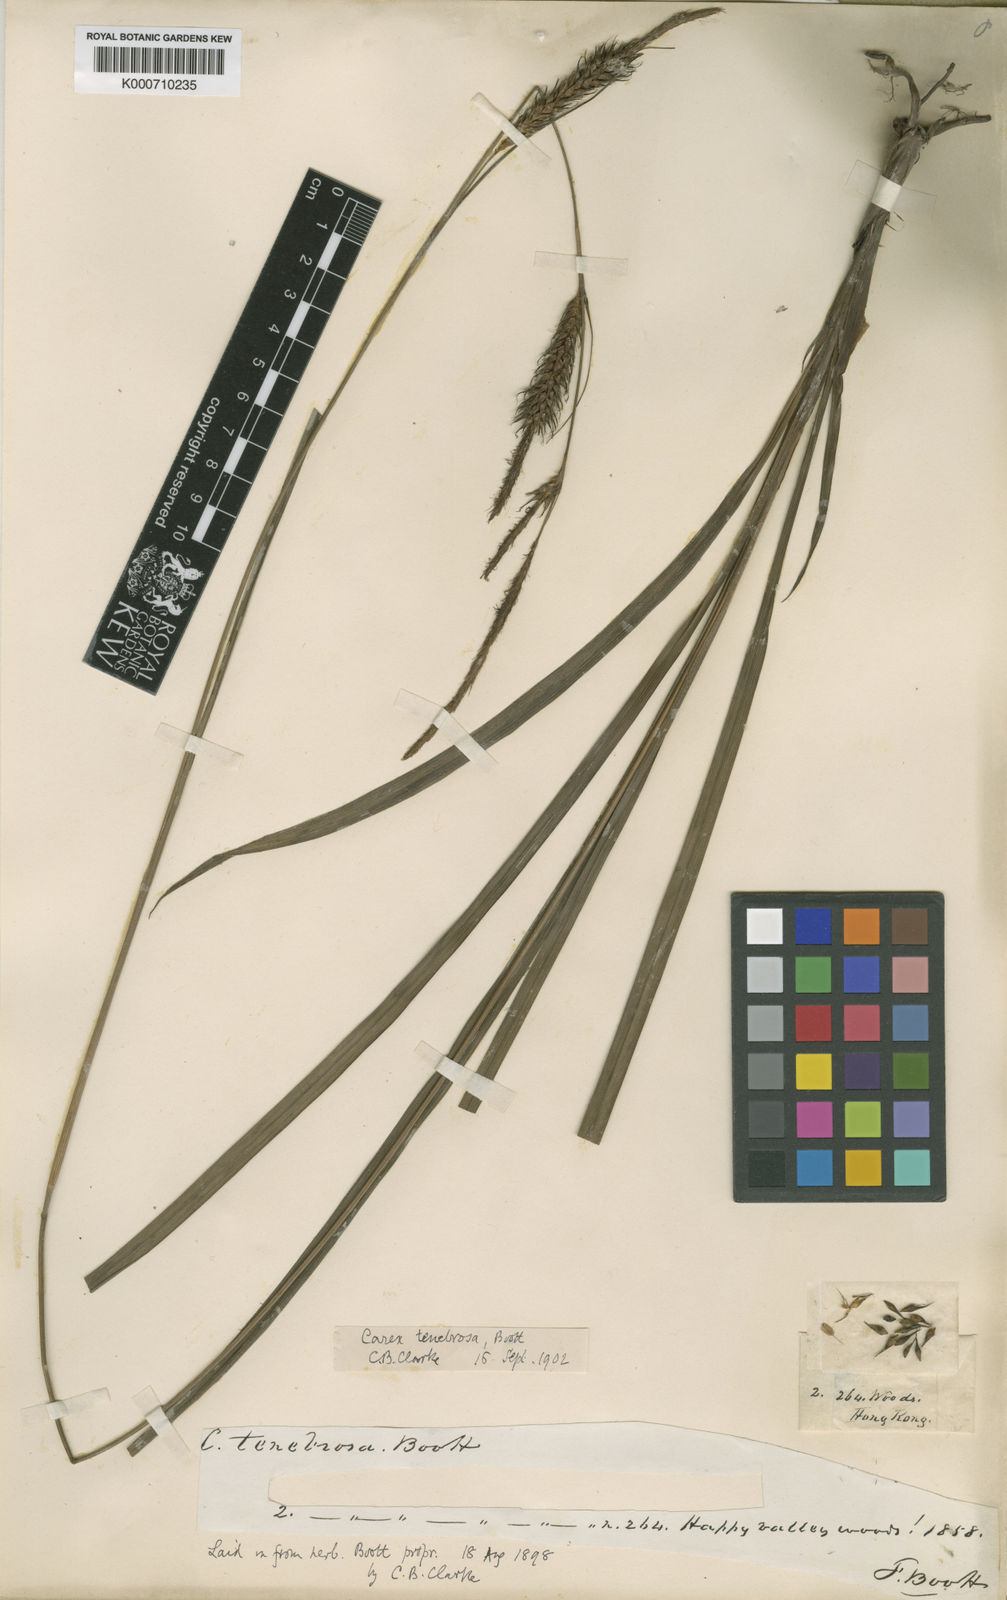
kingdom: Plantae
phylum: Tracheophyta
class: Liliopsida
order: Poales
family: Cyperaceae
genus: Carex
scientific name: Carex tenebrosa
